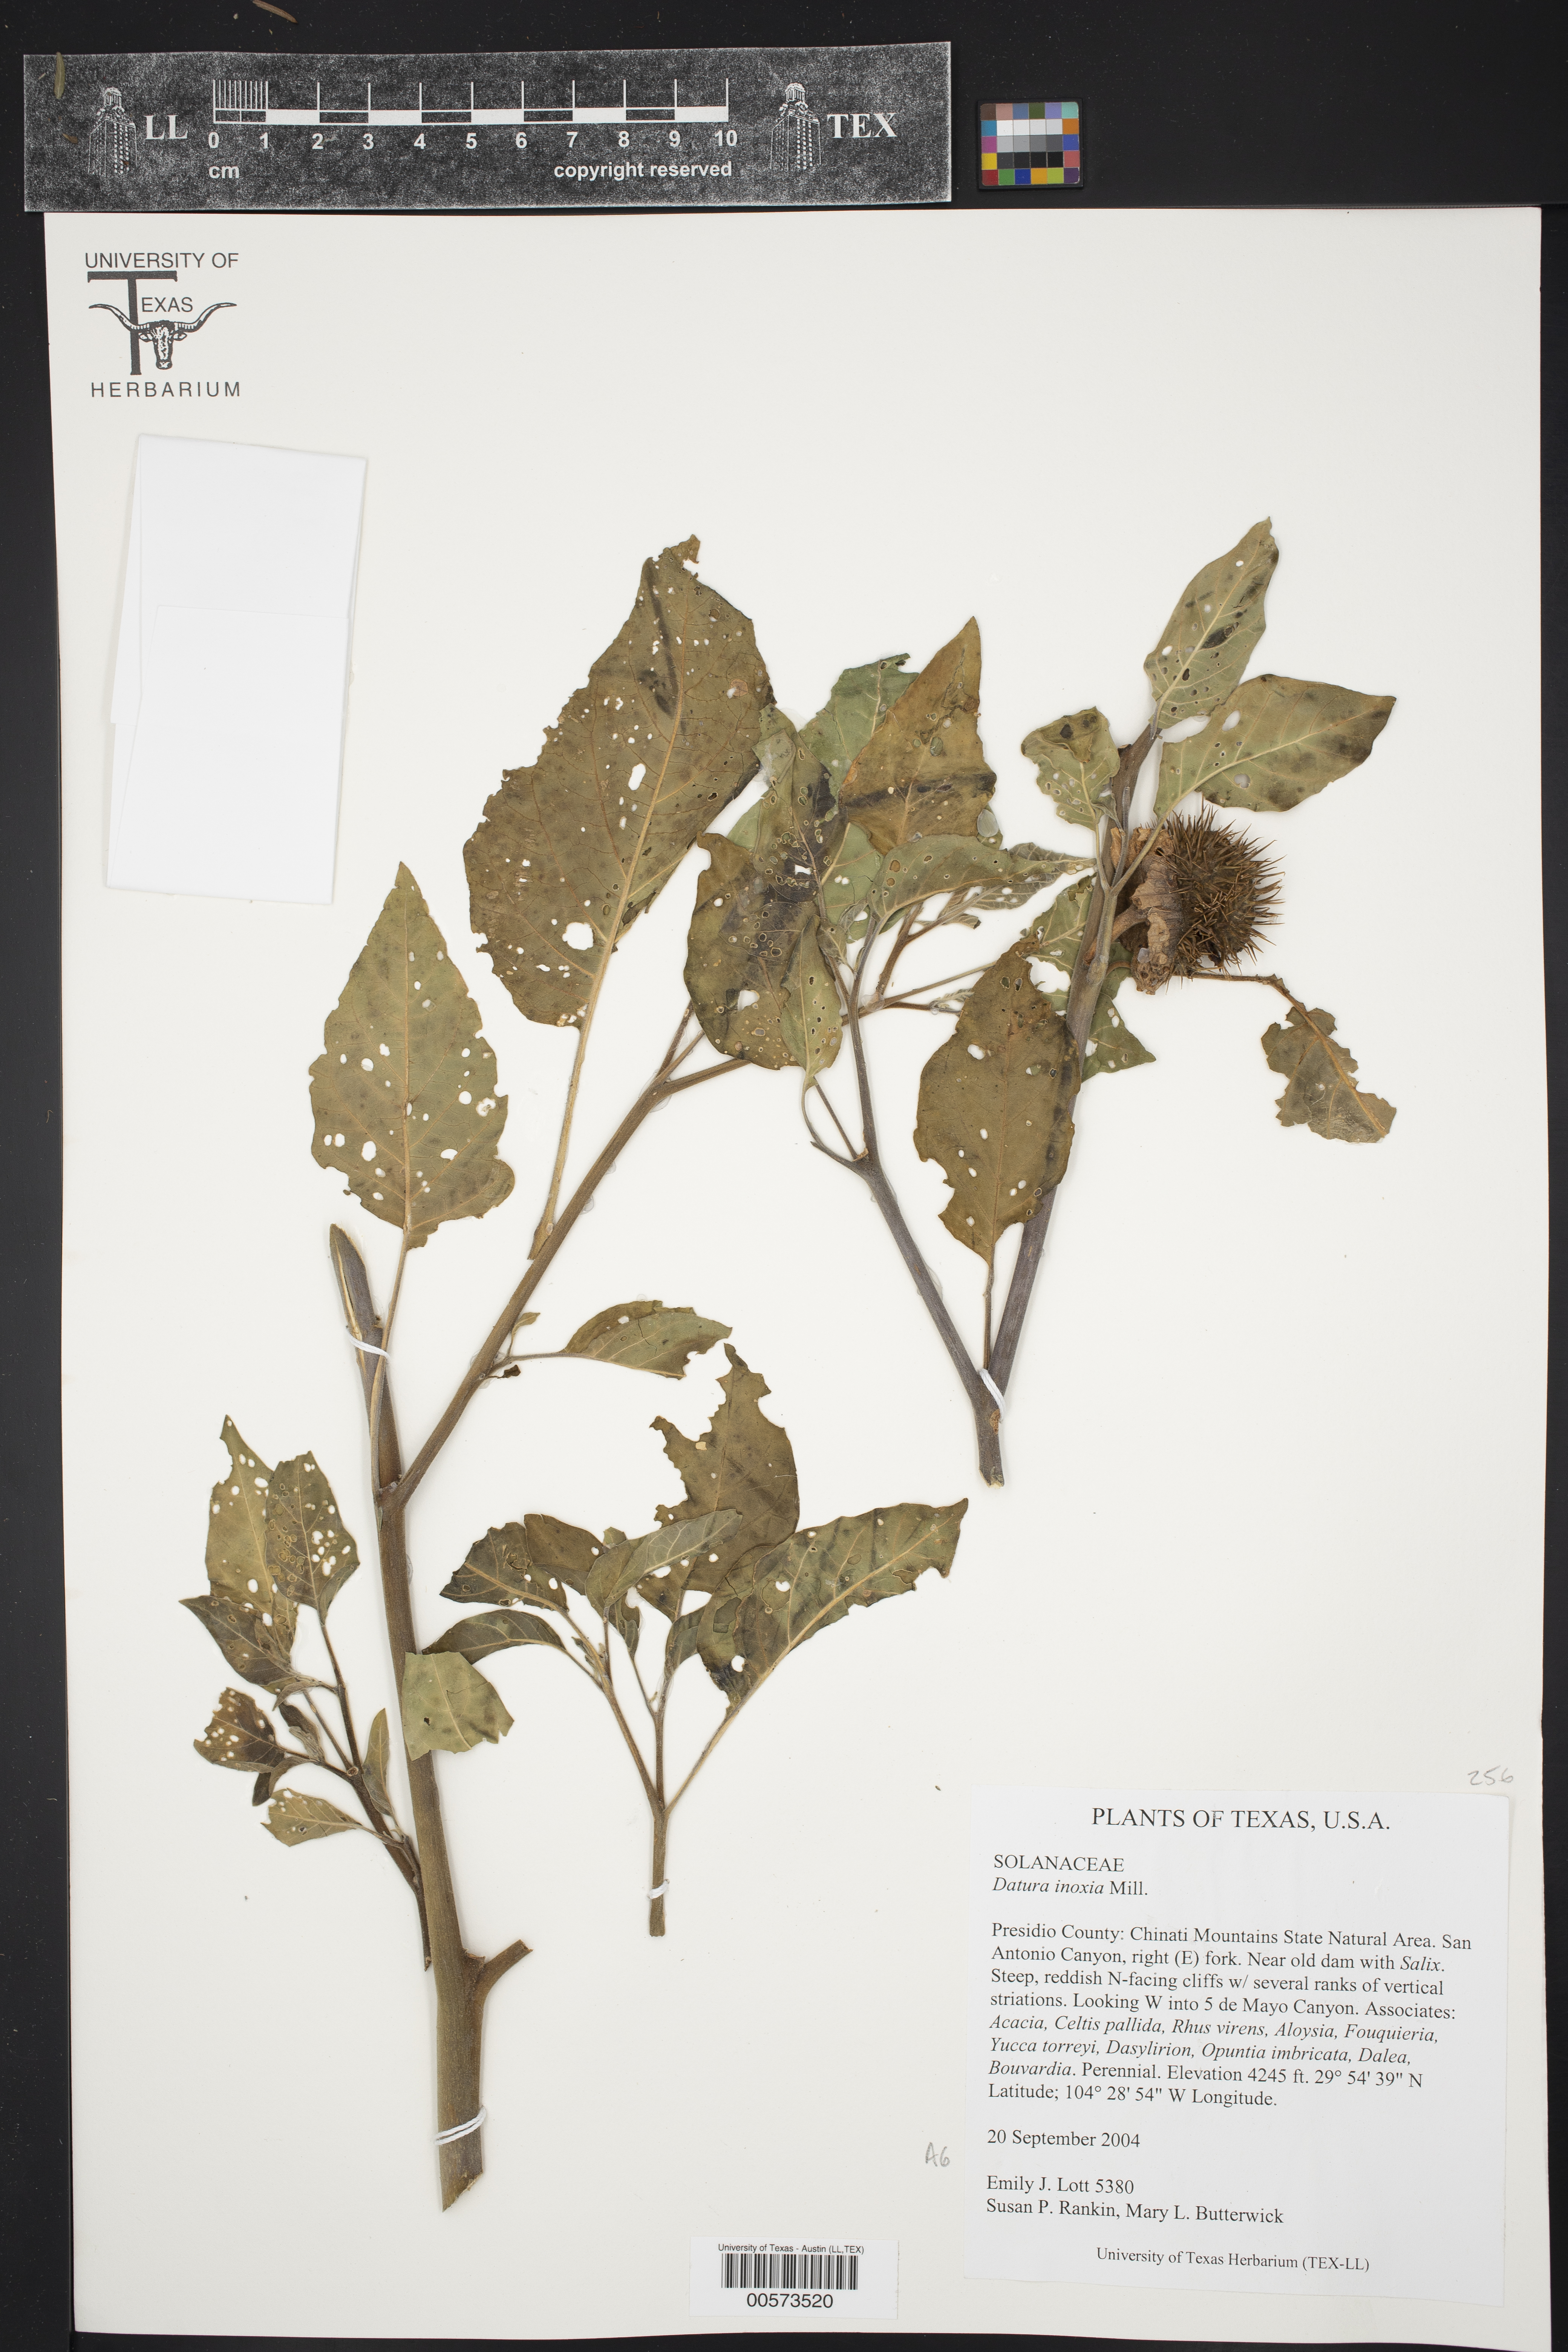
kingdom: Plantae
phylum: Tracheophyta
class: Magnoliopsida
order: Solanales
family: Solanaceae
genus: Datura
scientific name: Datura innoxia
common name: Downy thorn-apple
